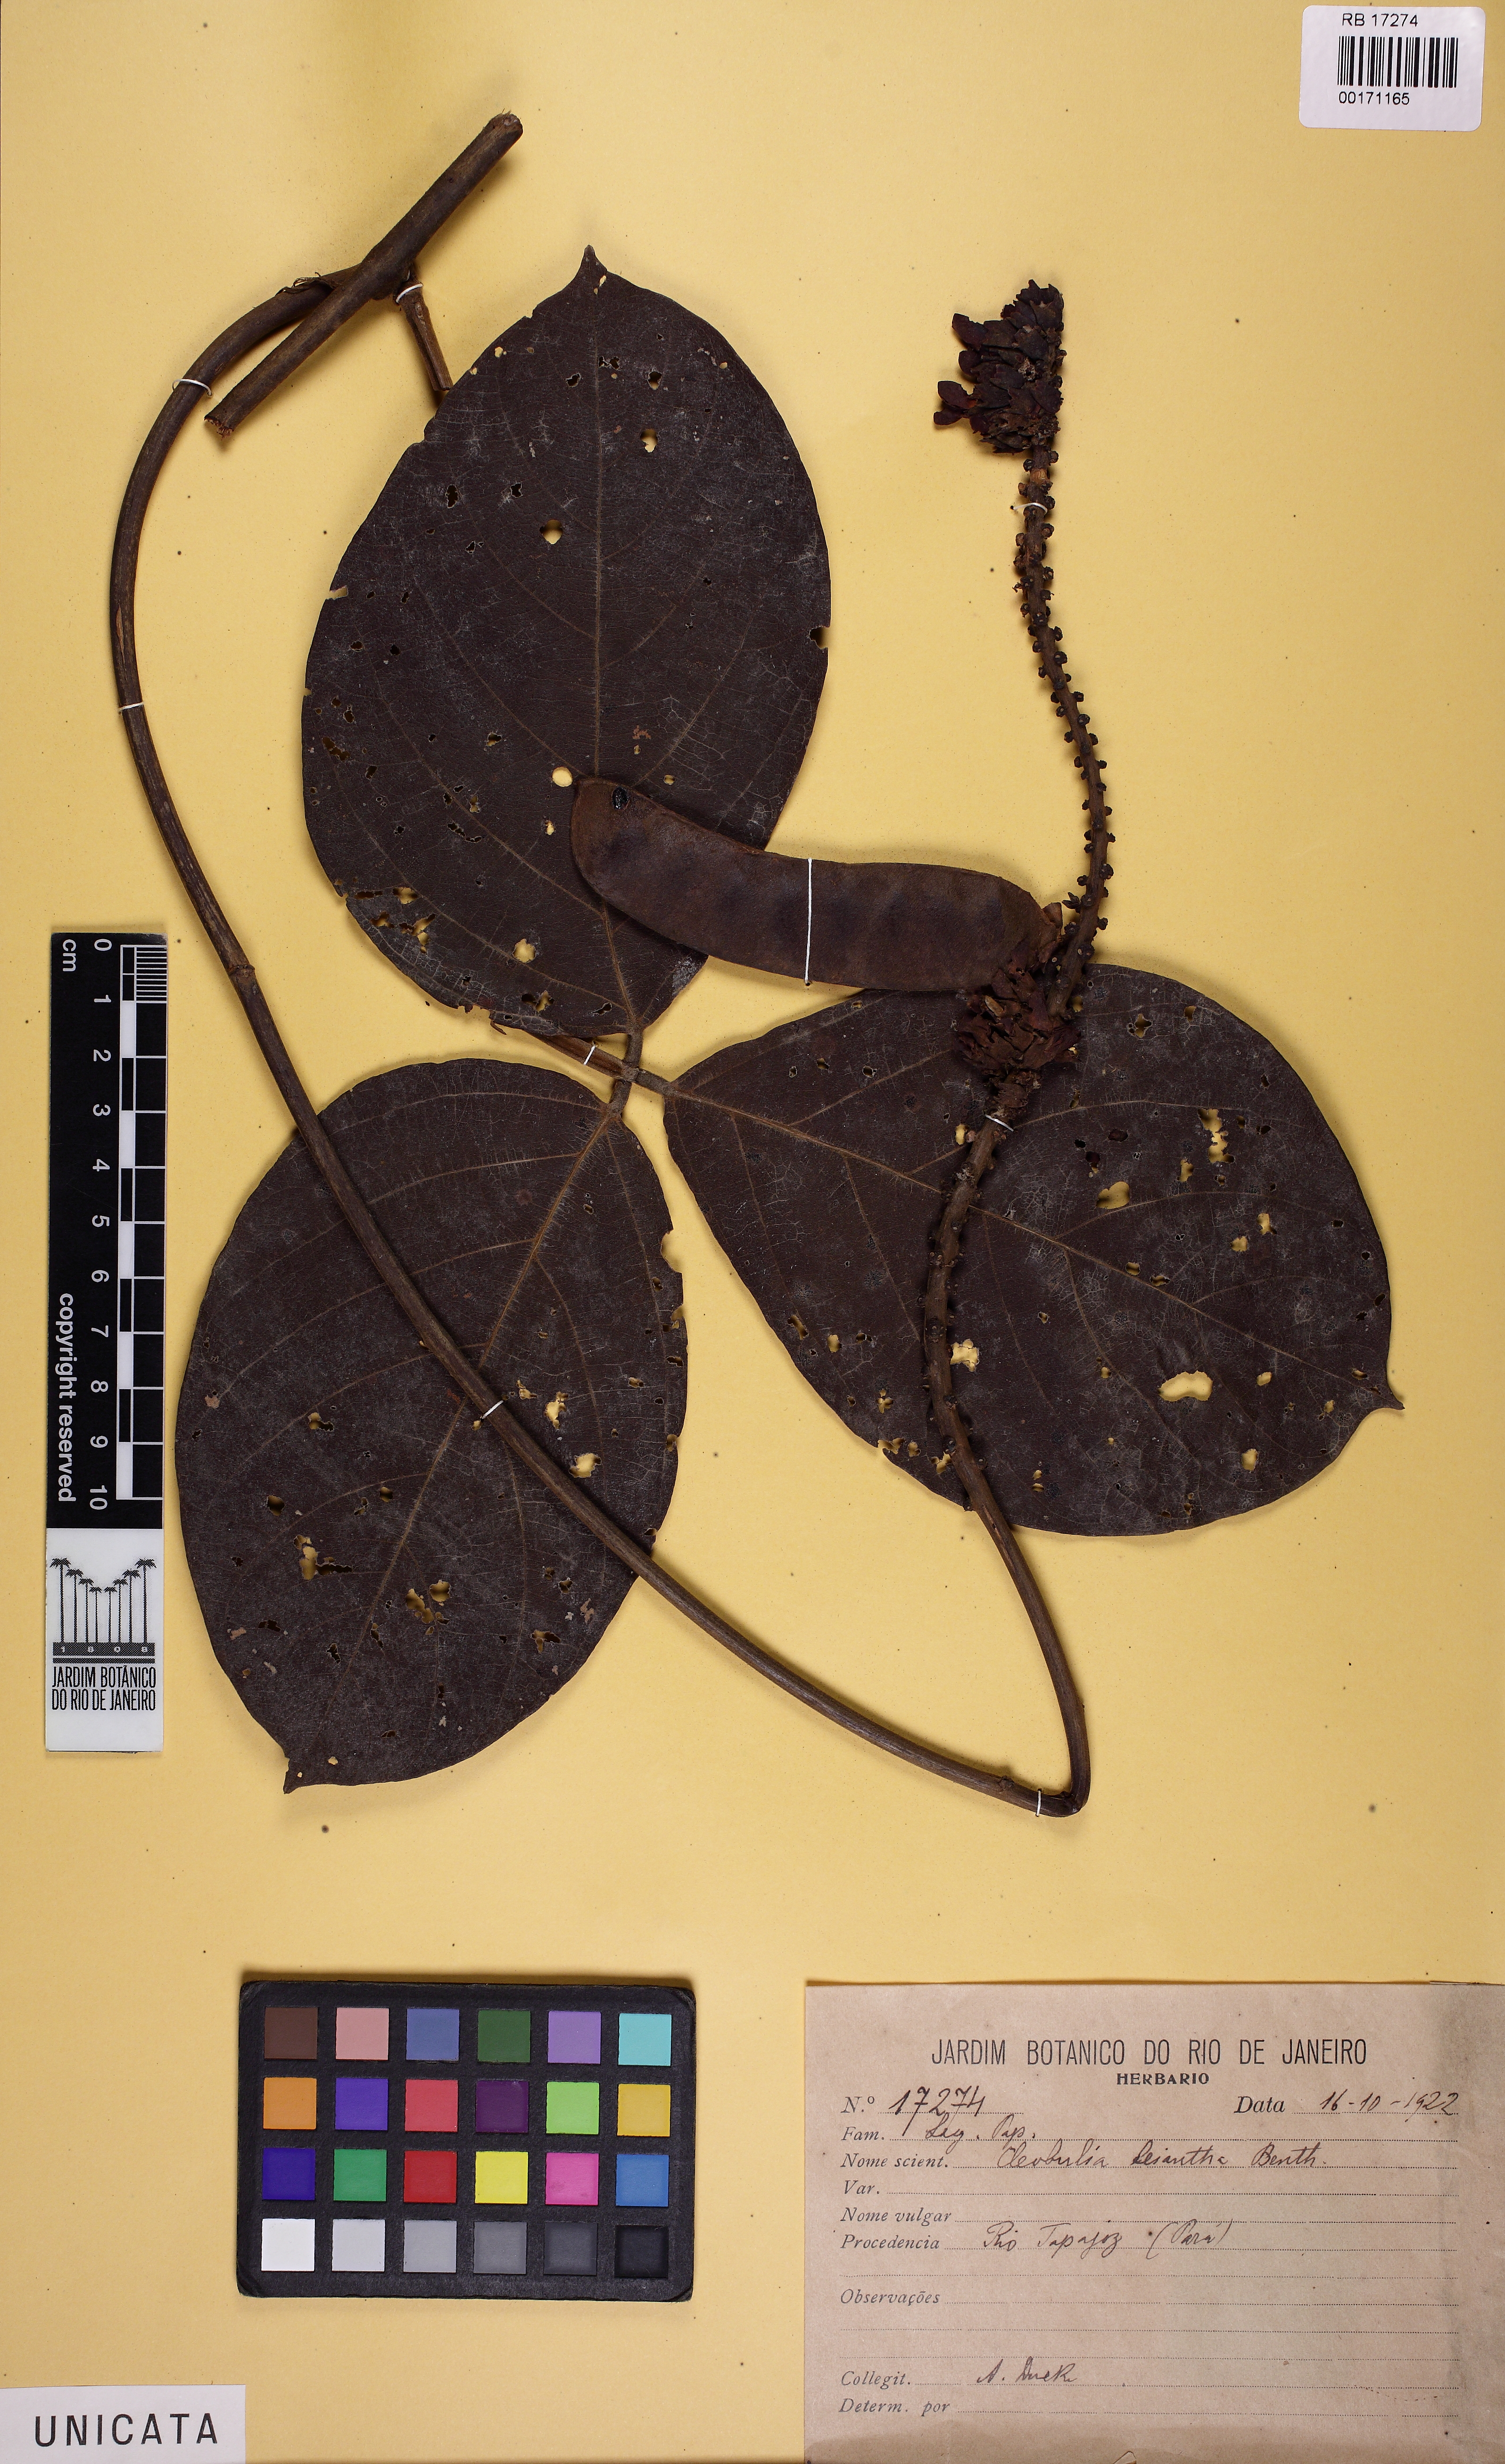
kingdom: Plantae
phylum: Tracheophyta
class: Magnoliopsida
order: Fabales
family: Fabaceae
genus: Cleobulia
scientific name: Cleobulia leiantha
